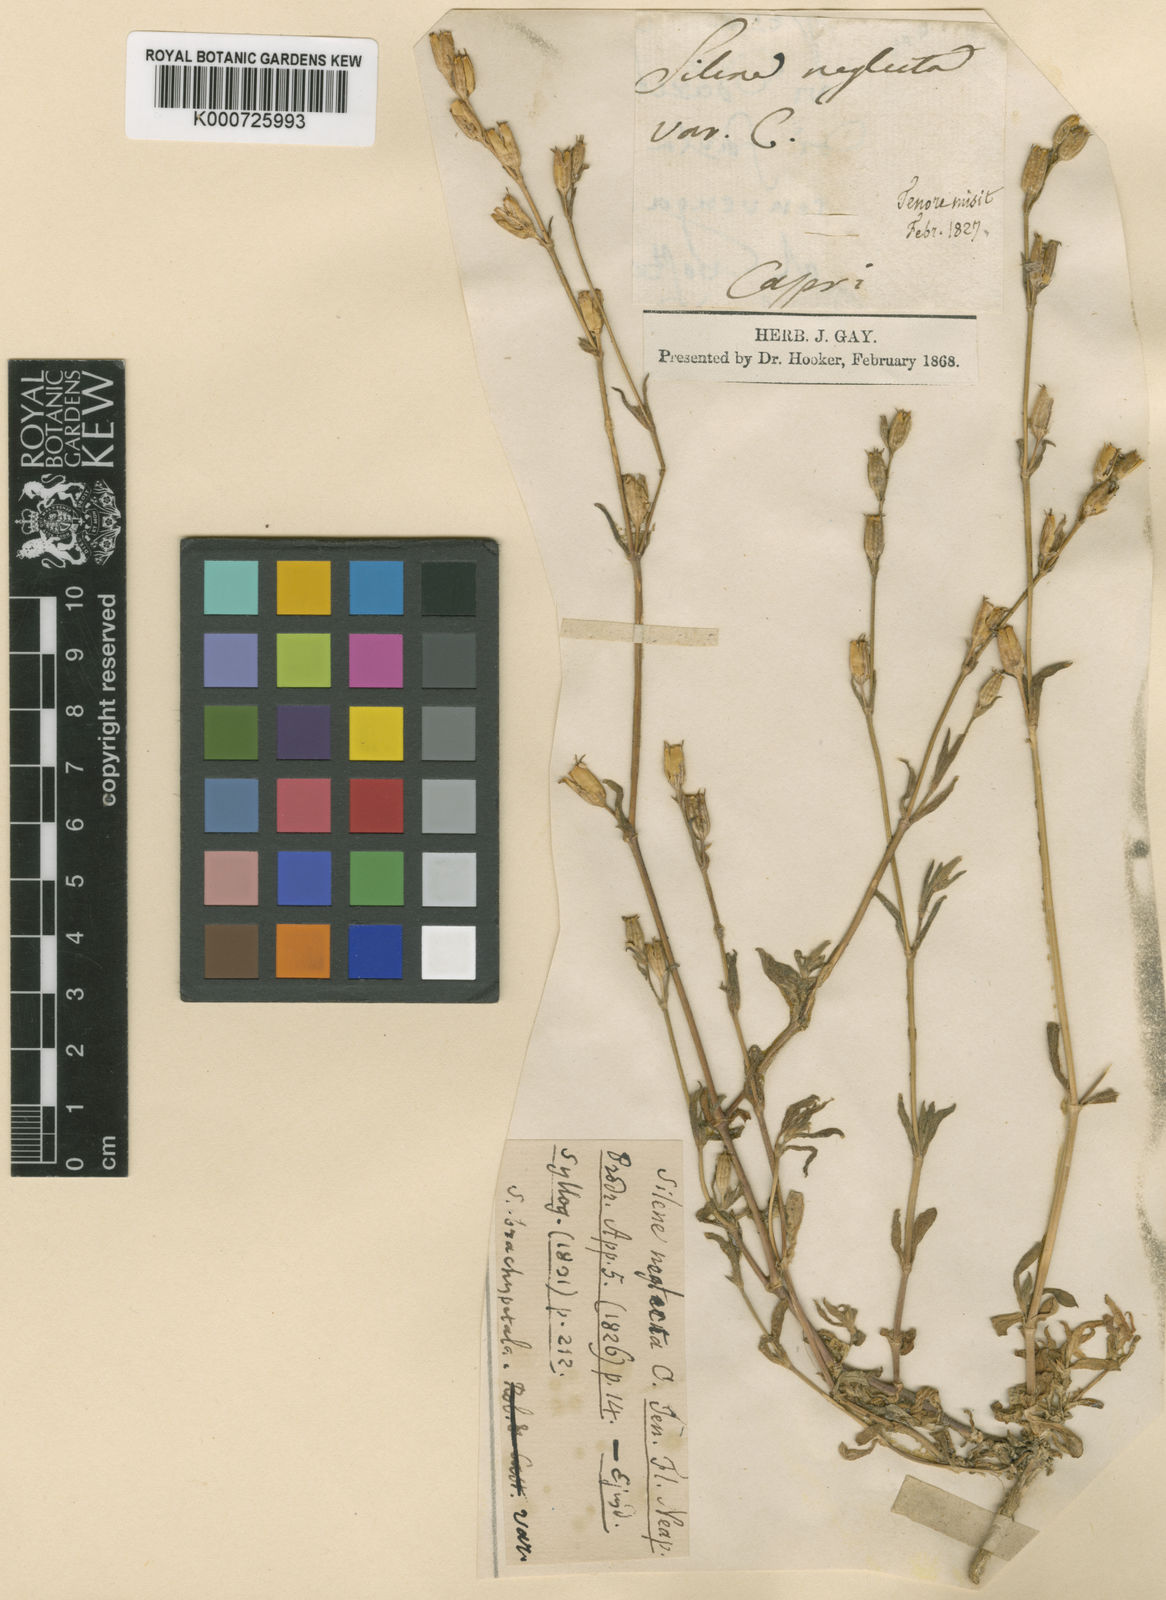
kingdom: Plantae
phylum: Tracheophyta
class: Magnoliopsida
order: Caryophyllales
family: Caryophyllaceae
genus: Silene
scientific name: Silene gallica
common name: Small-flowered catchfly
